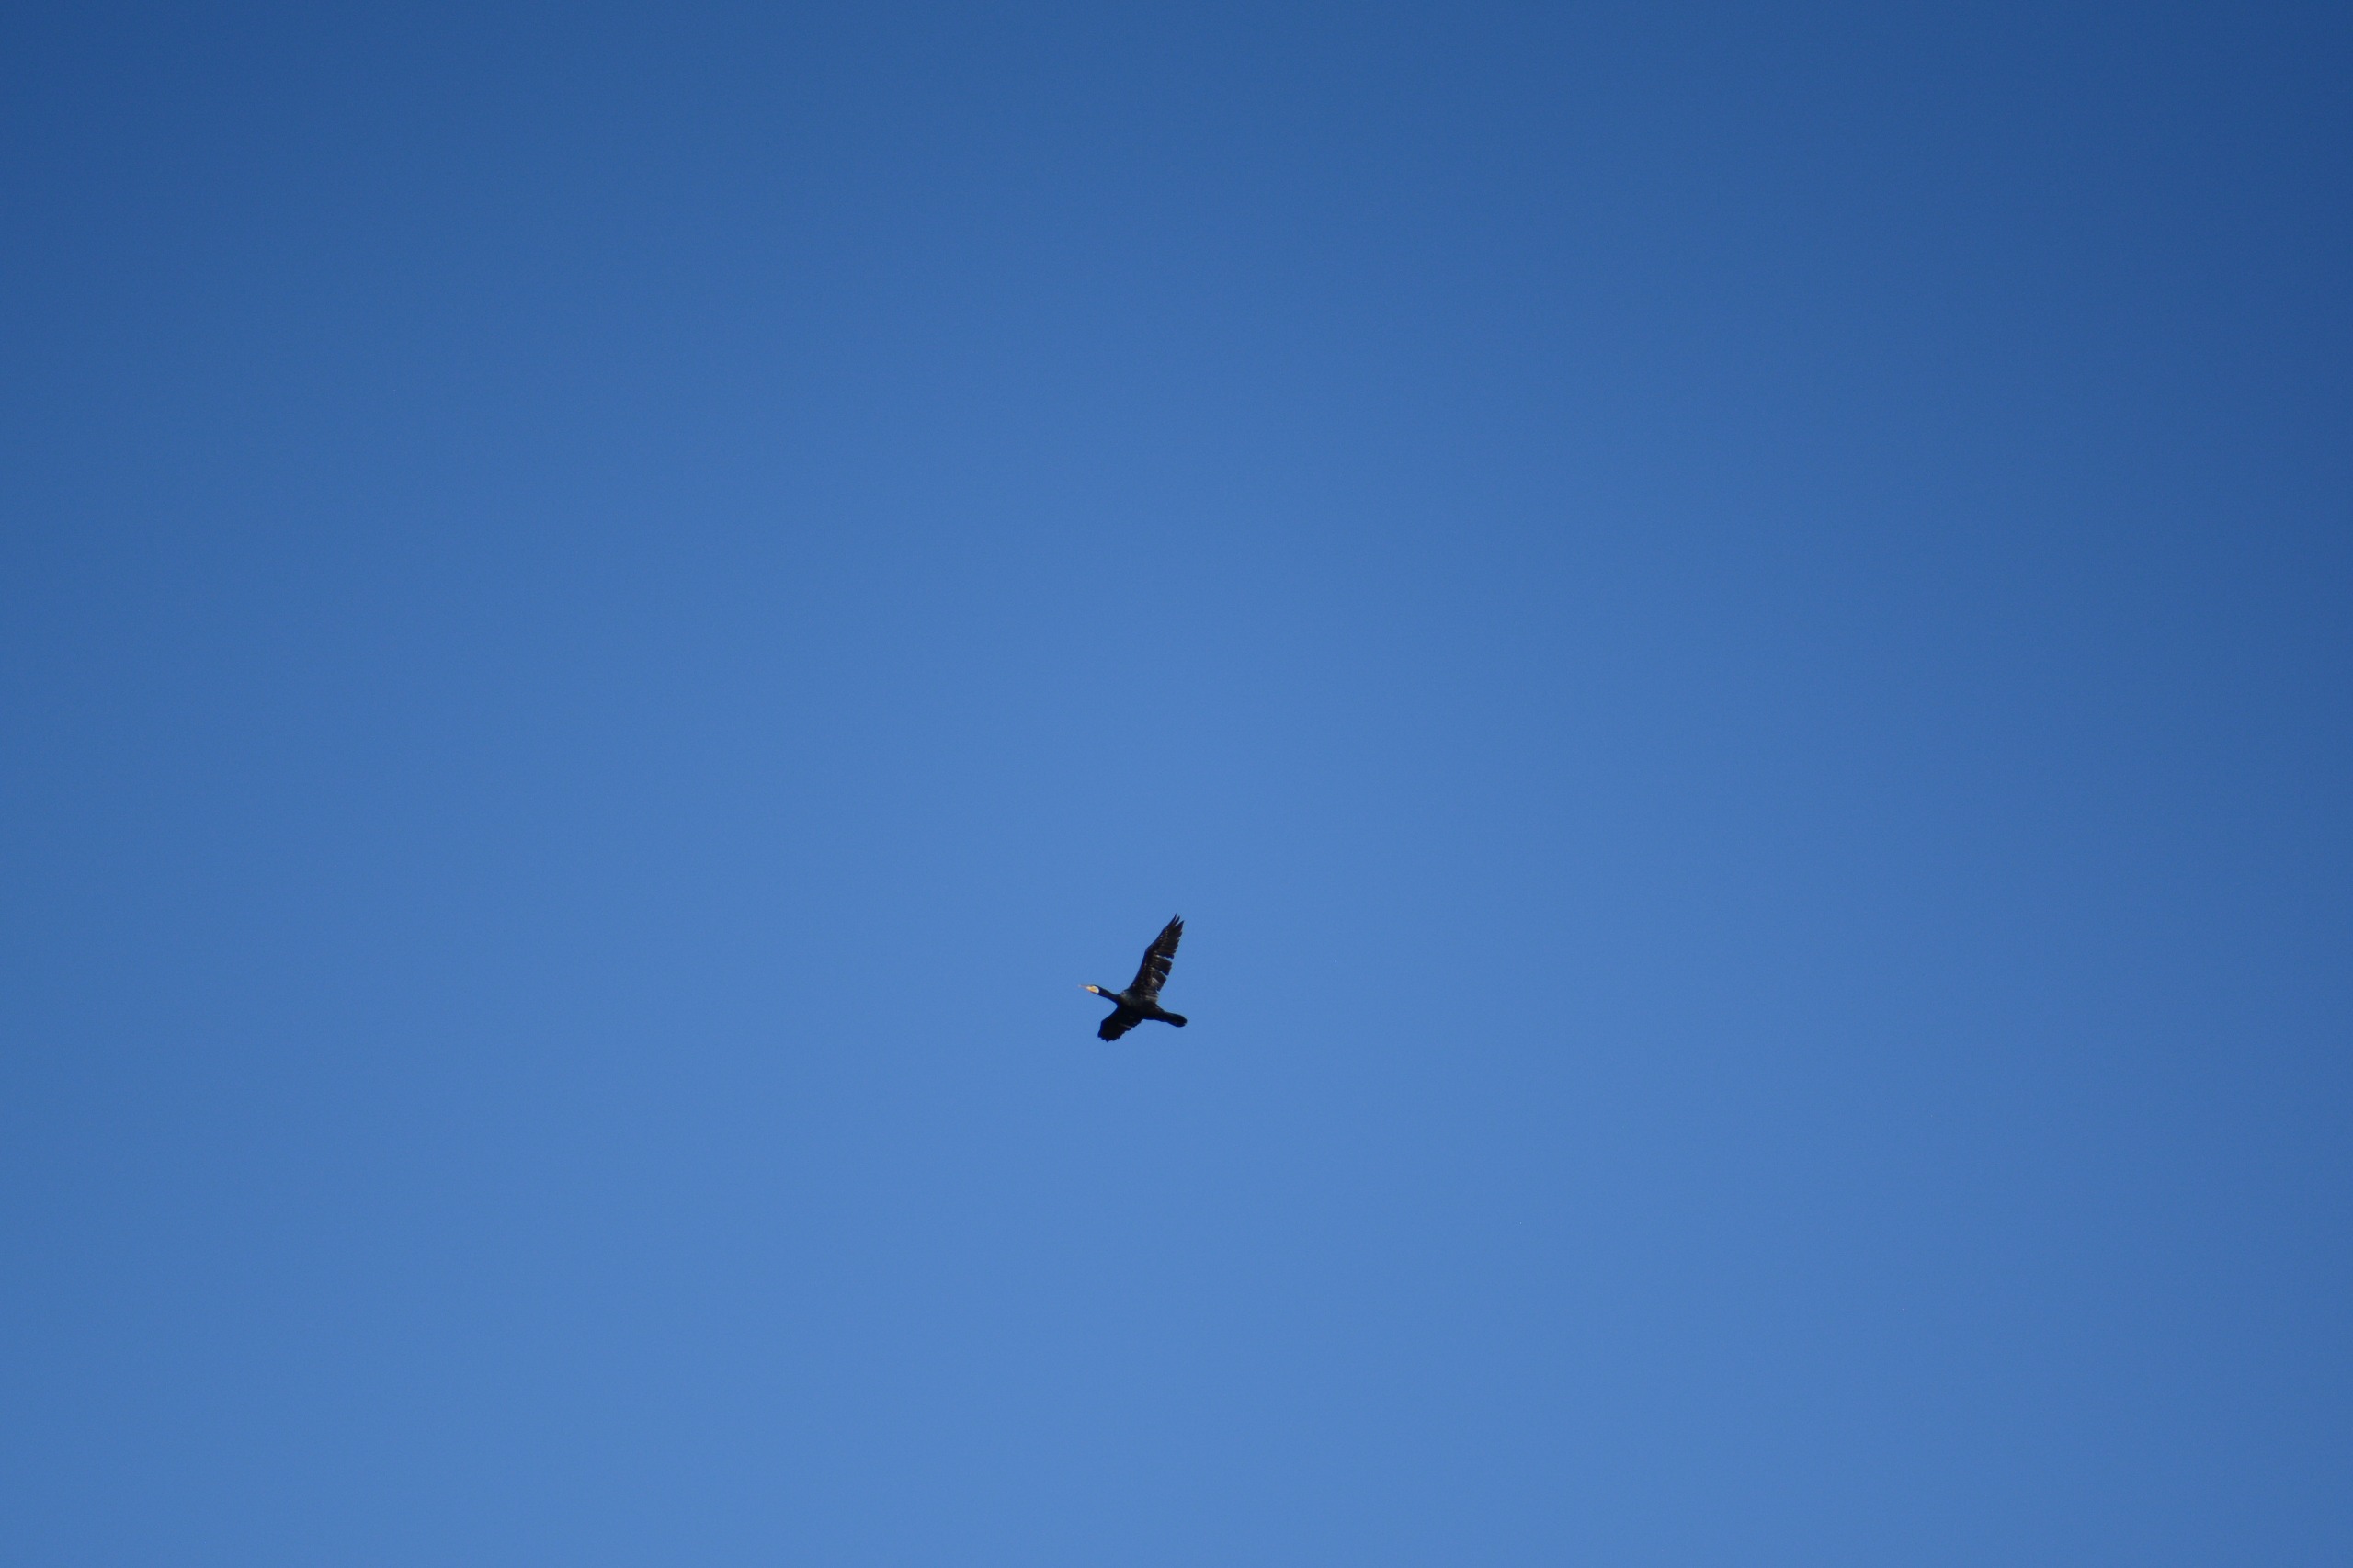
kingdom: Animalia
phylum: Chordata
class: Aves
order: Suliformes
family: Phalacrocoracidae
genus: Phalacrocorax
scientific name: Phalacrocorax carbo
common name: Skarv
